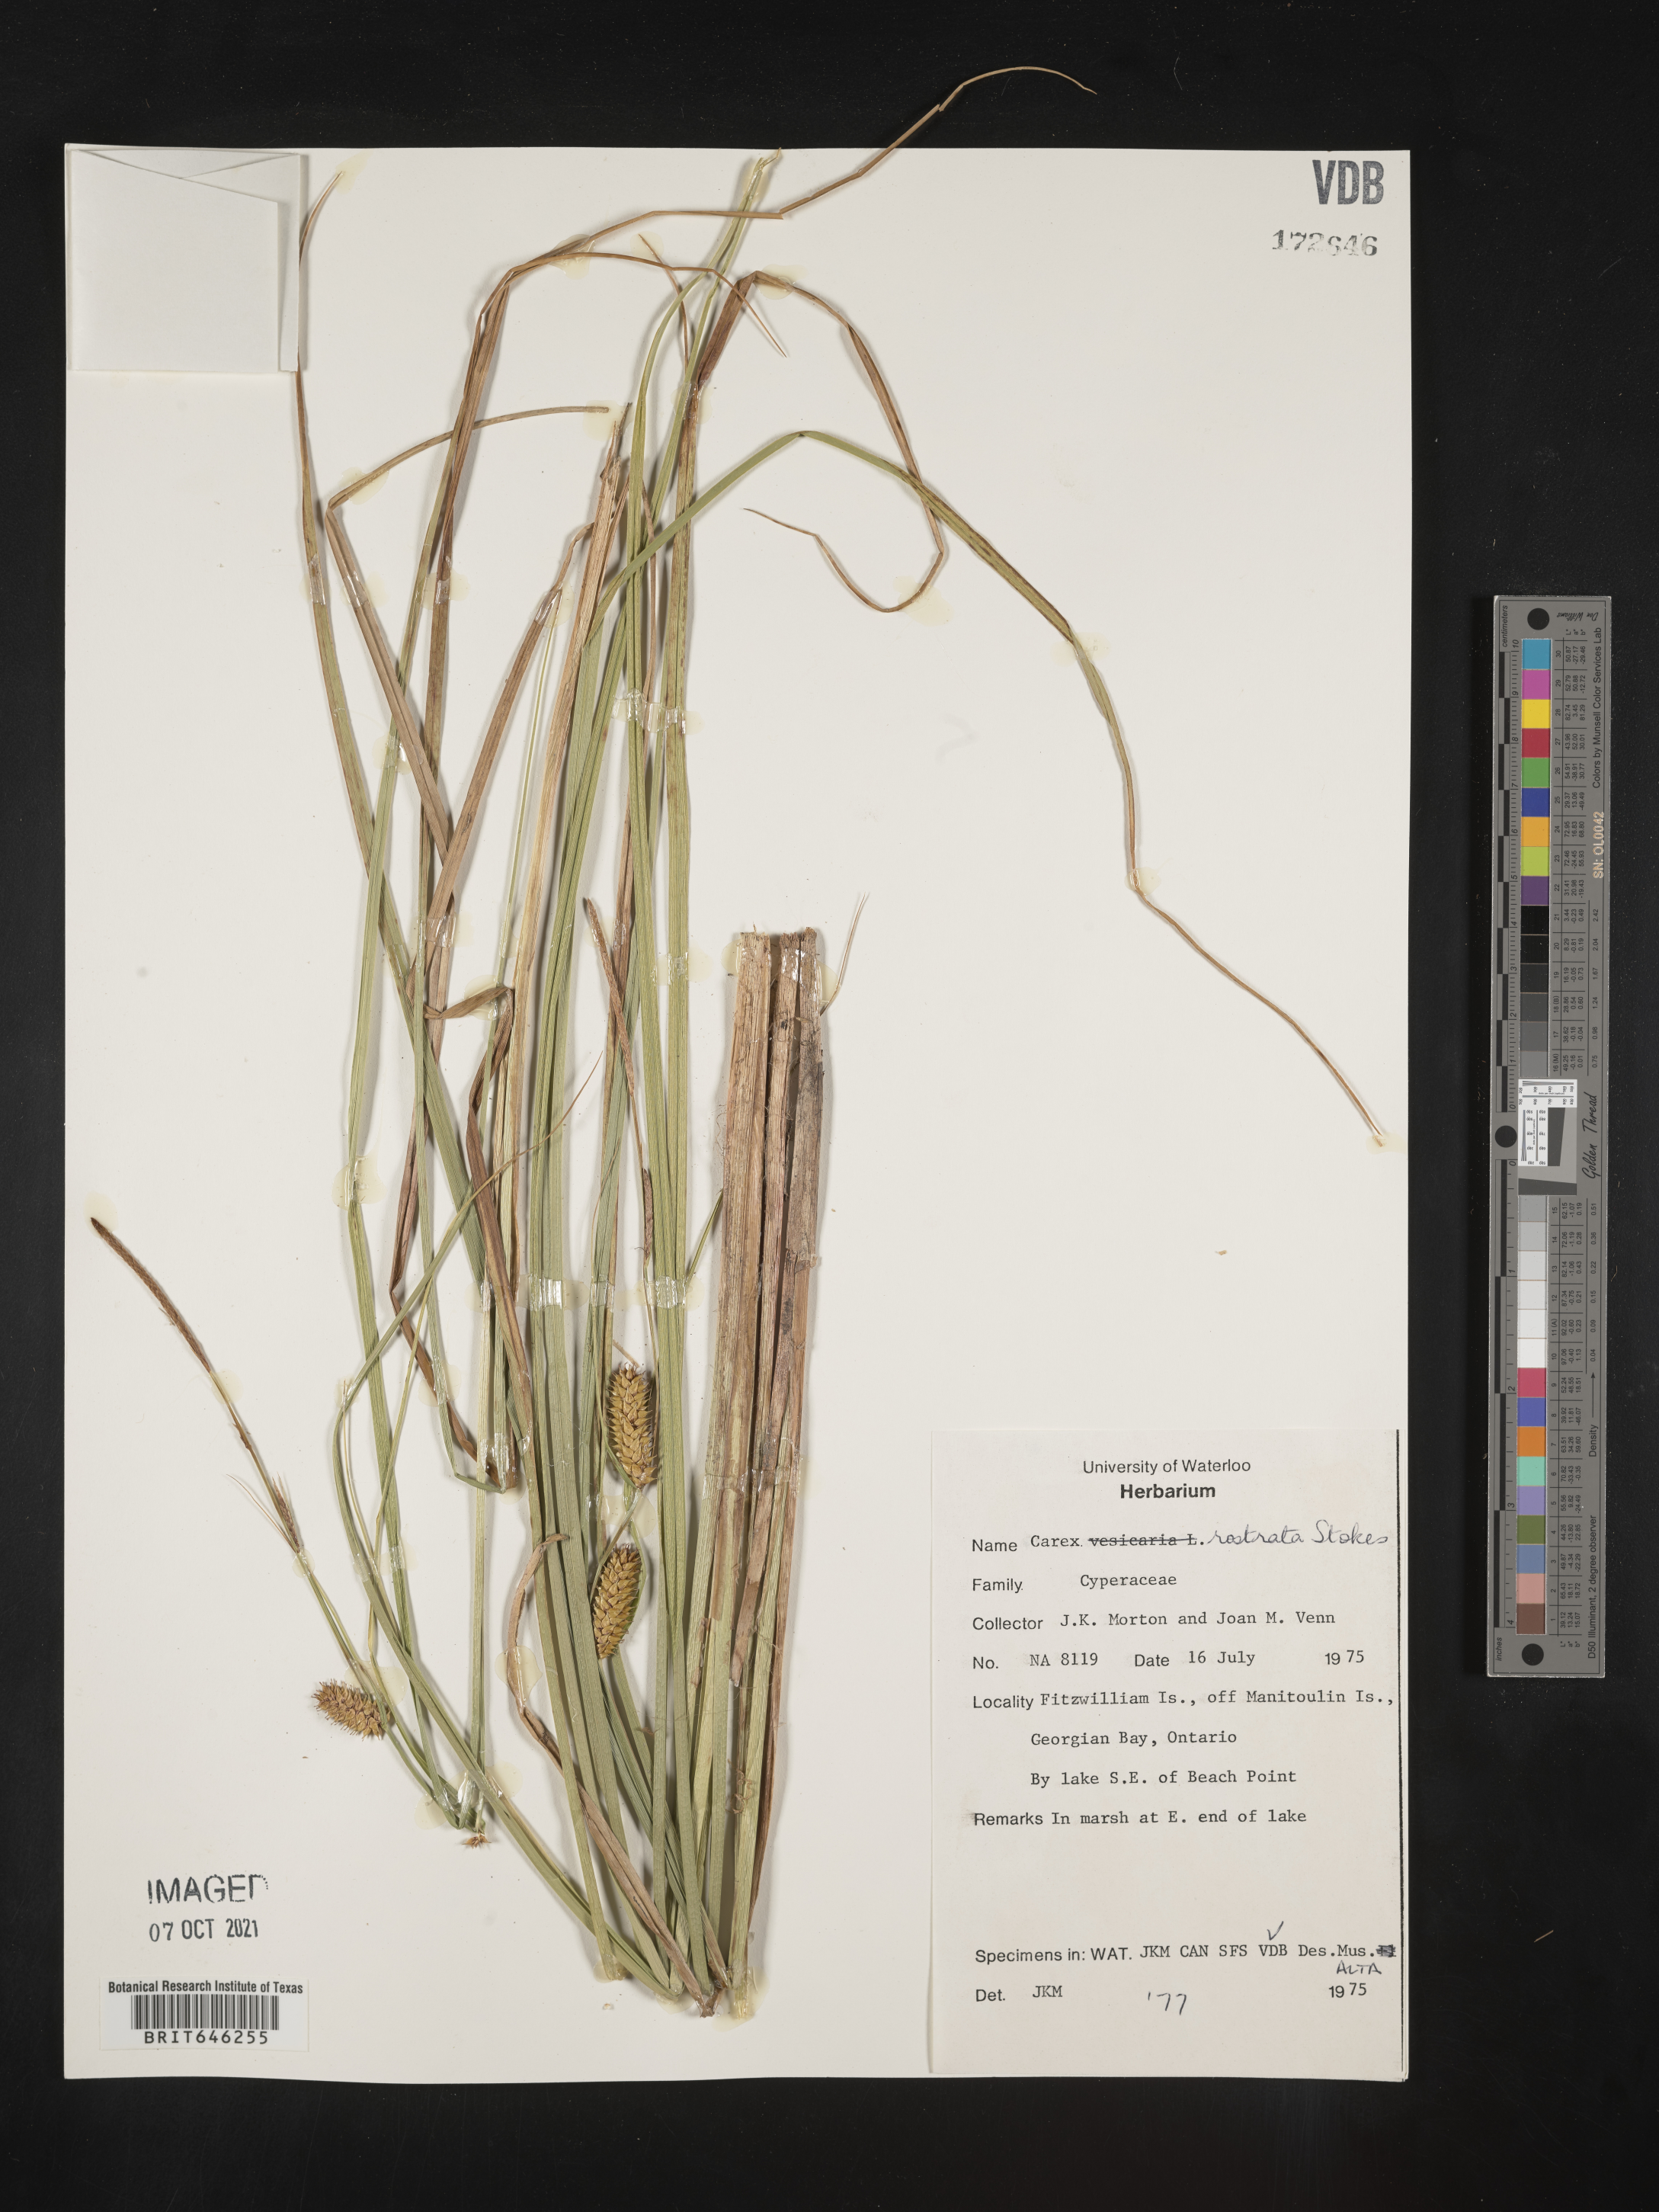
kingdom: Plantae
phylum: Tracheophyta
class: Liliopsida
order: Poales
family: Cyperaceae
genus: Carex
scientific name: Carex rostrata
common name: Bottle sedge
